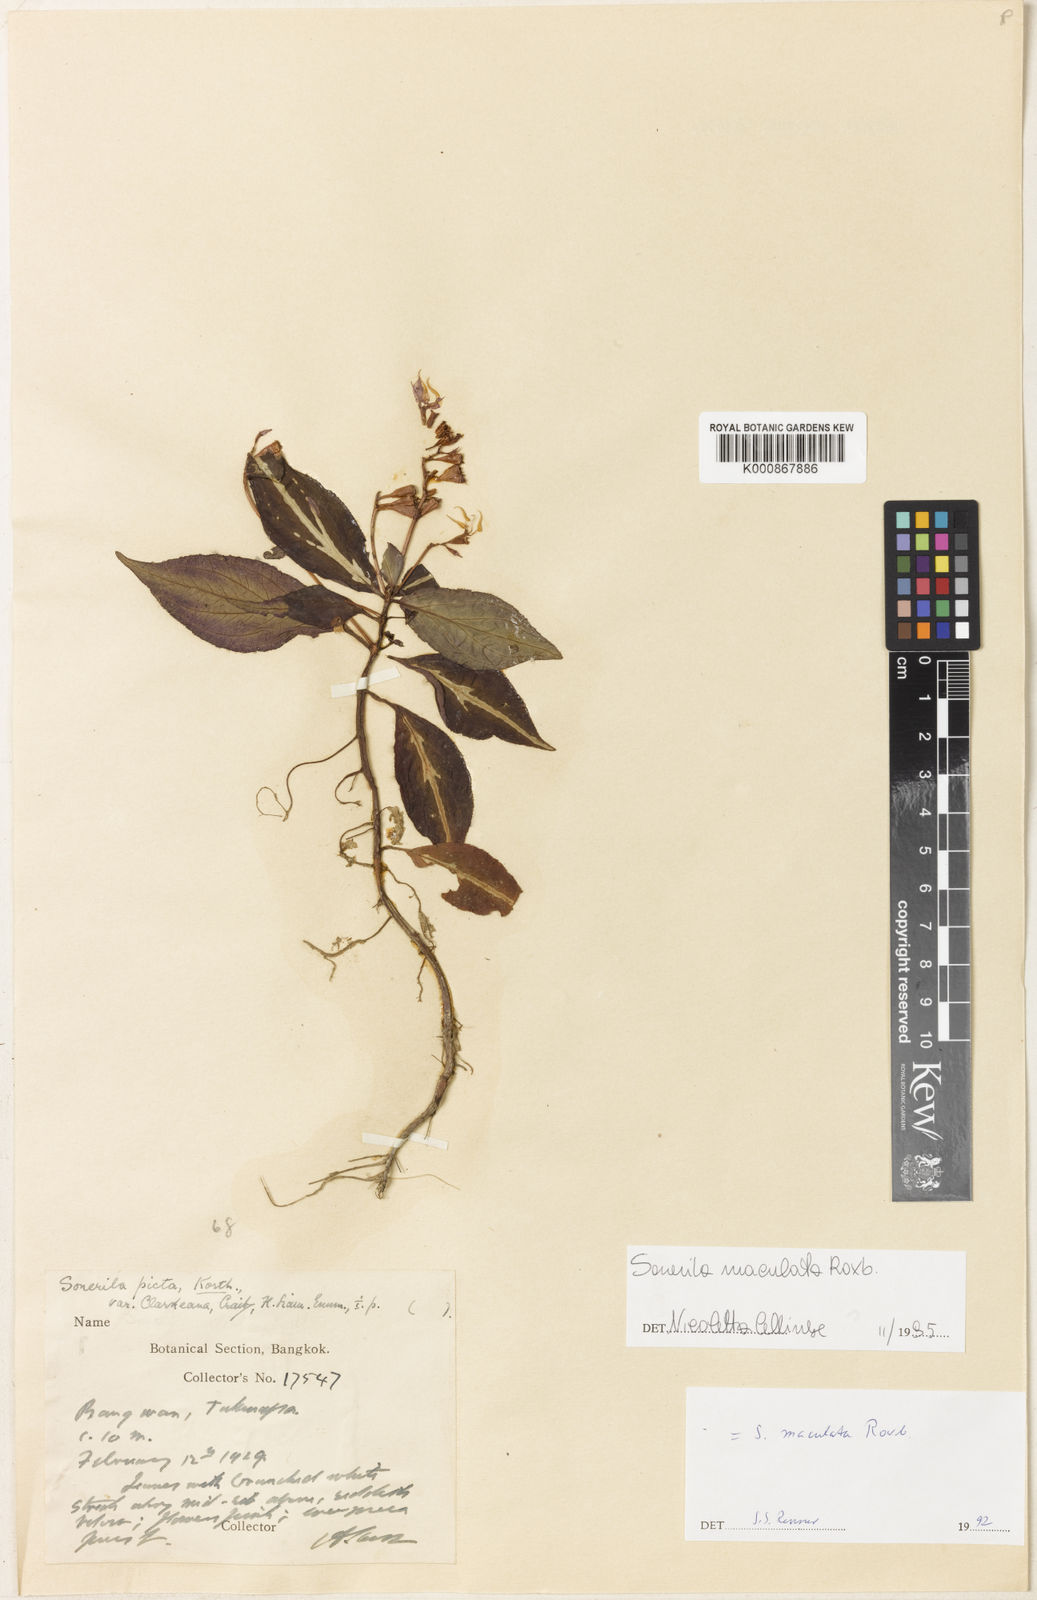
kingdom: Plantae
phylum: Tracheophyta
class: Magnoliopsida
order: Myrtales
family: Melastomataceae
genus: Sonerila
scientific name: Sonerila maculata
